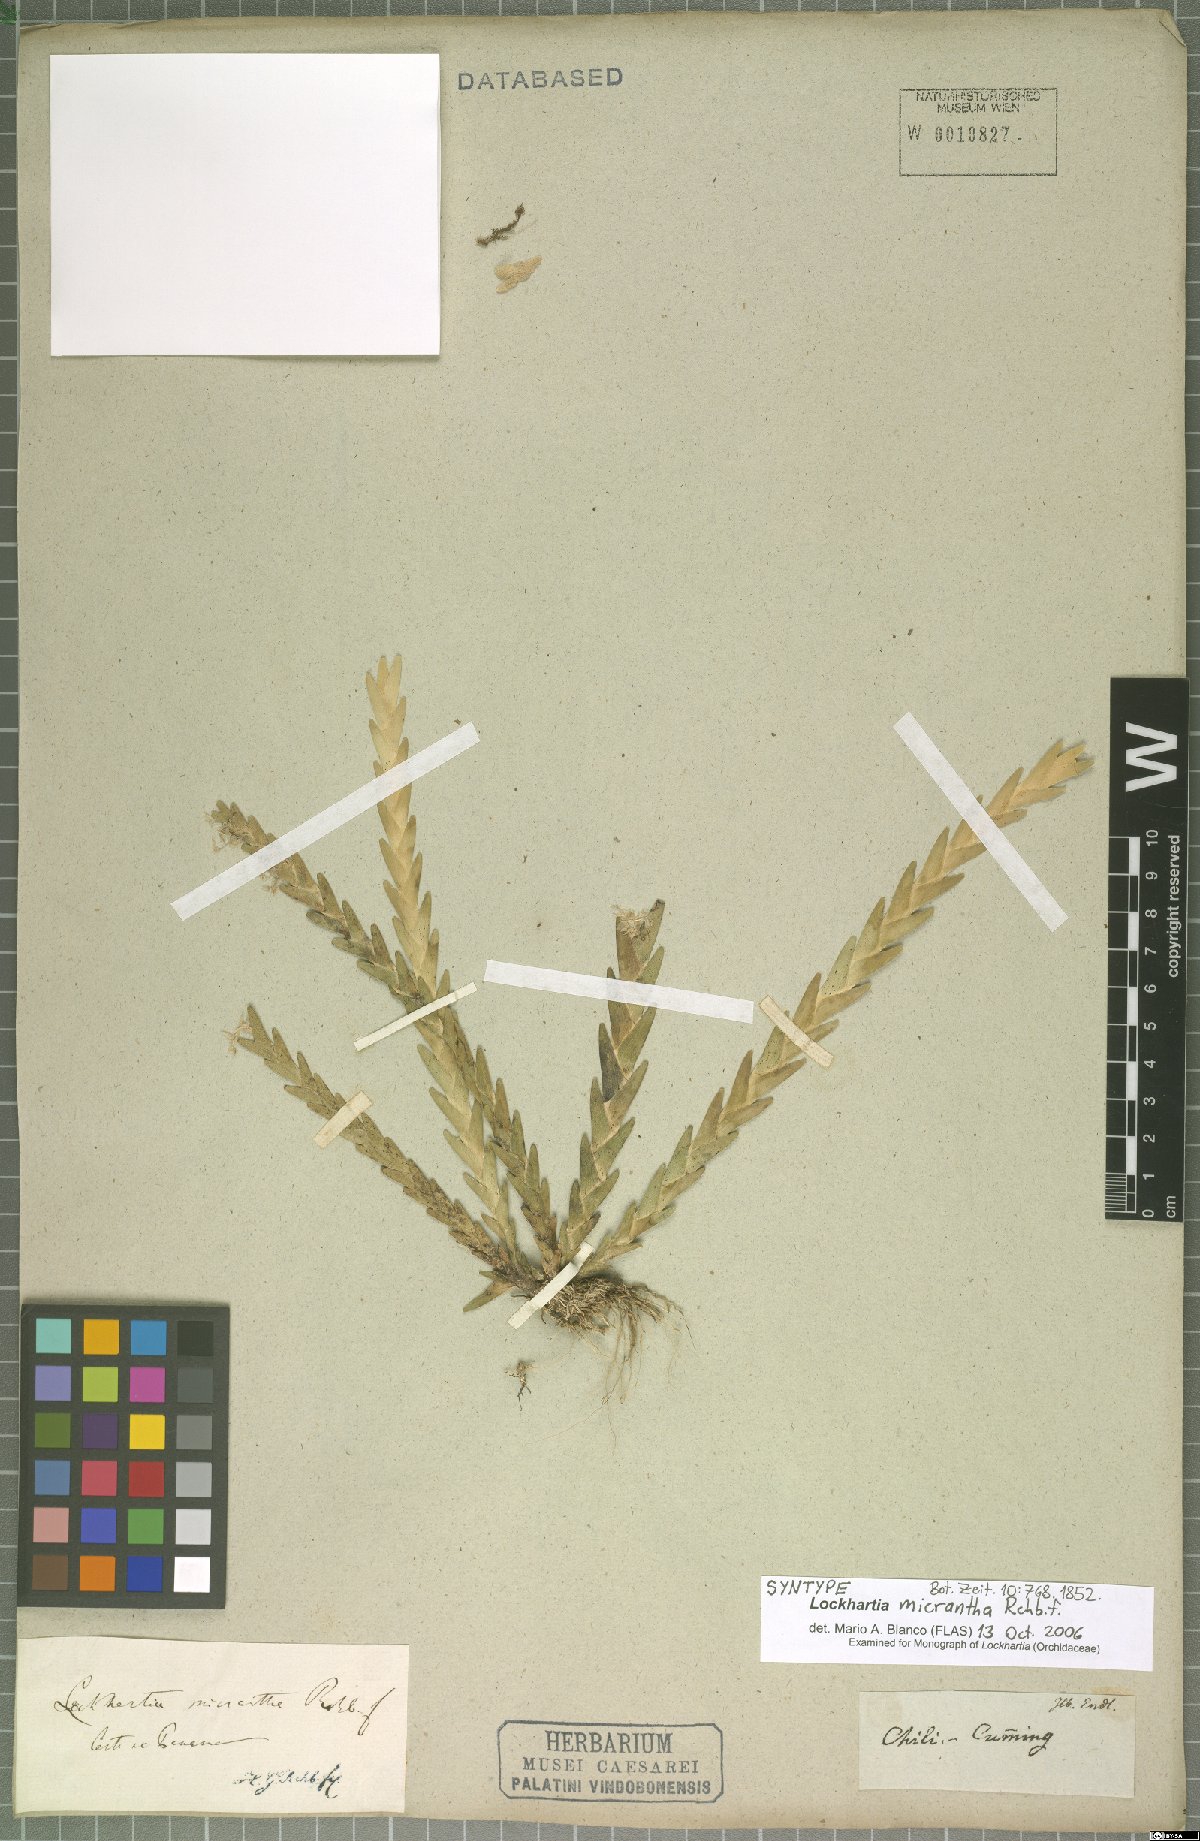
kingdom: Plantae
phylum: Tracheophyta
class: Liliopsida
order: Asparagales
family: Orchidaceae
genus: Lockhartia
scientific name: Lockhartia micrantha
